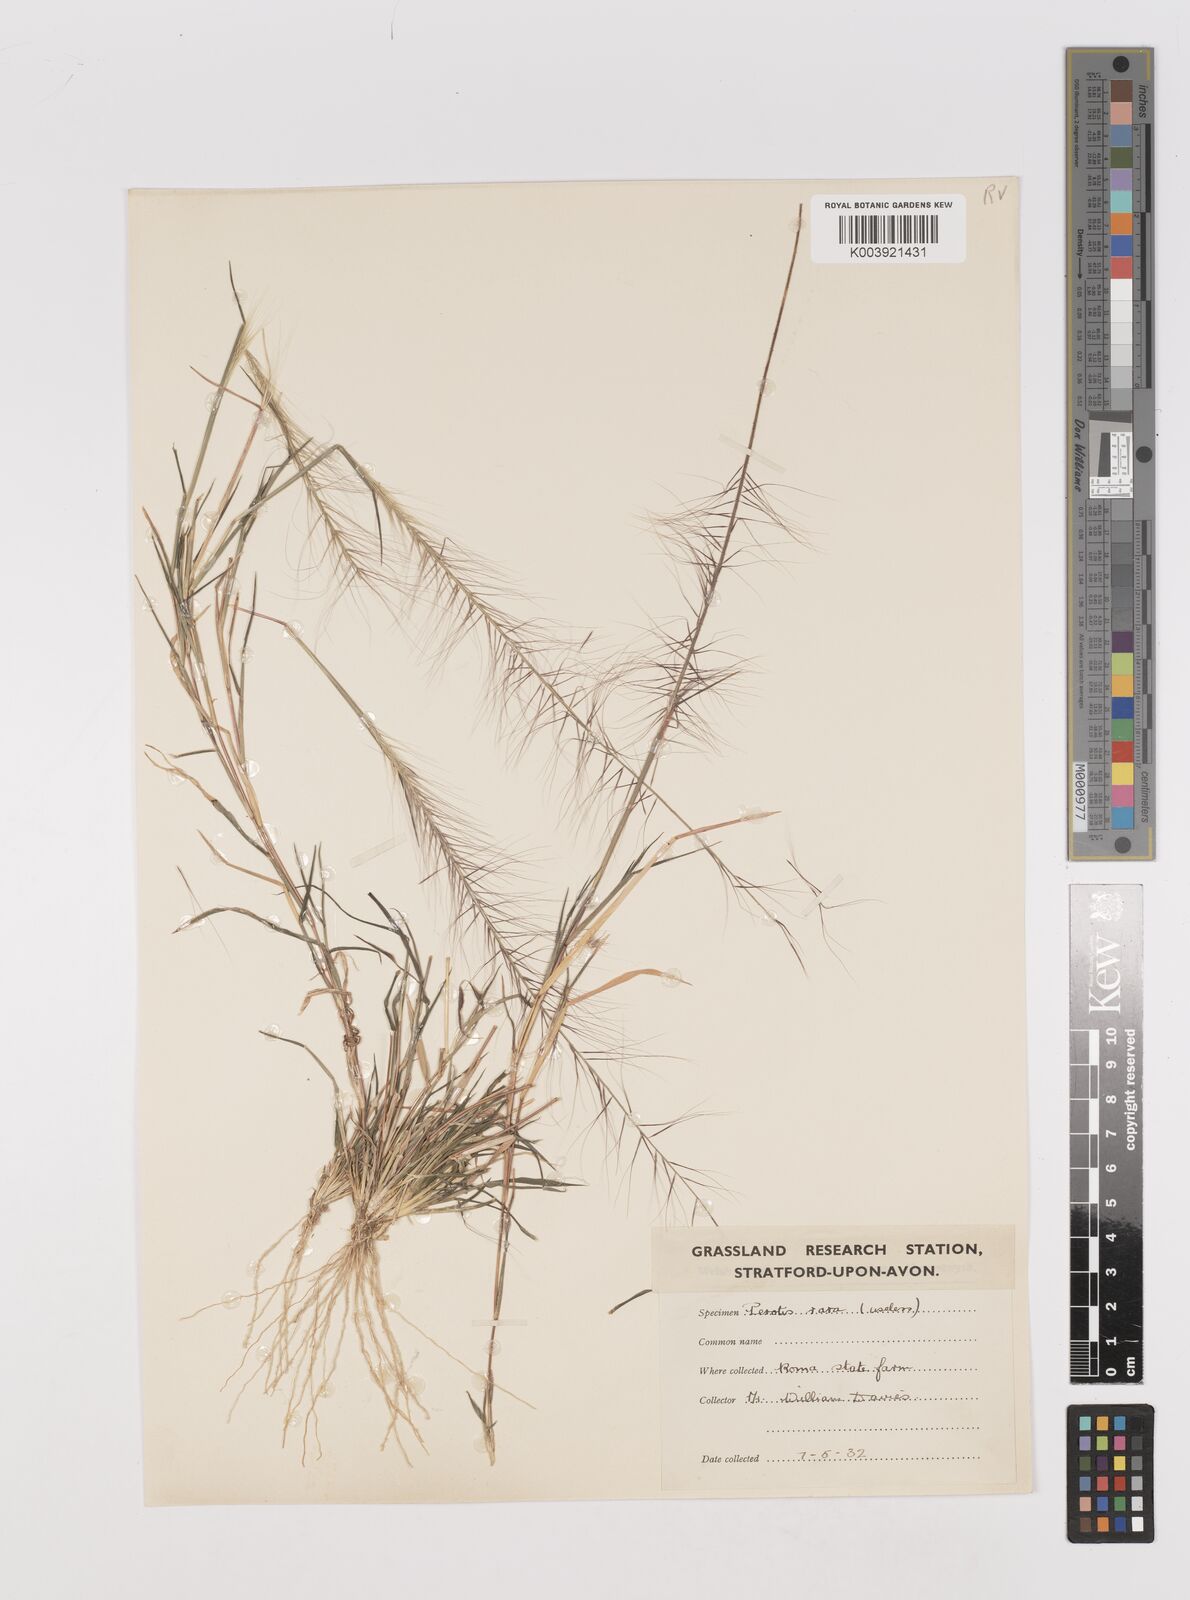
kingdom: Plantae
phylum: Tracheophyta
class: Liliopsida
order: Poales
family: Poaceae
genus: Perotis
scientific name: Perotis rara
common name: Comet grass
